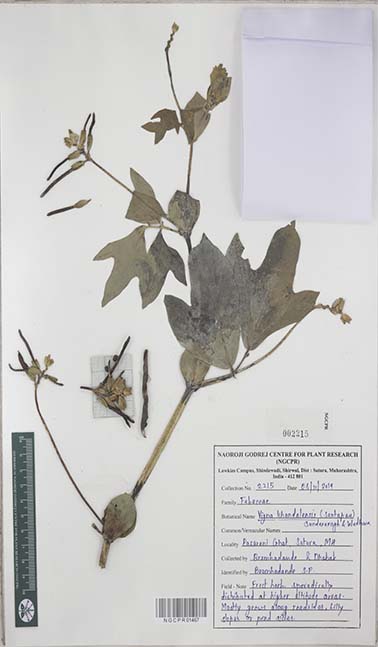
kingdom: Plantae
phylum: Tracheophyta
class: Magnoliopsida
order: Fabales
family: Fabaceae
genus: Vigna
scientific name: Vigna khandalensis
